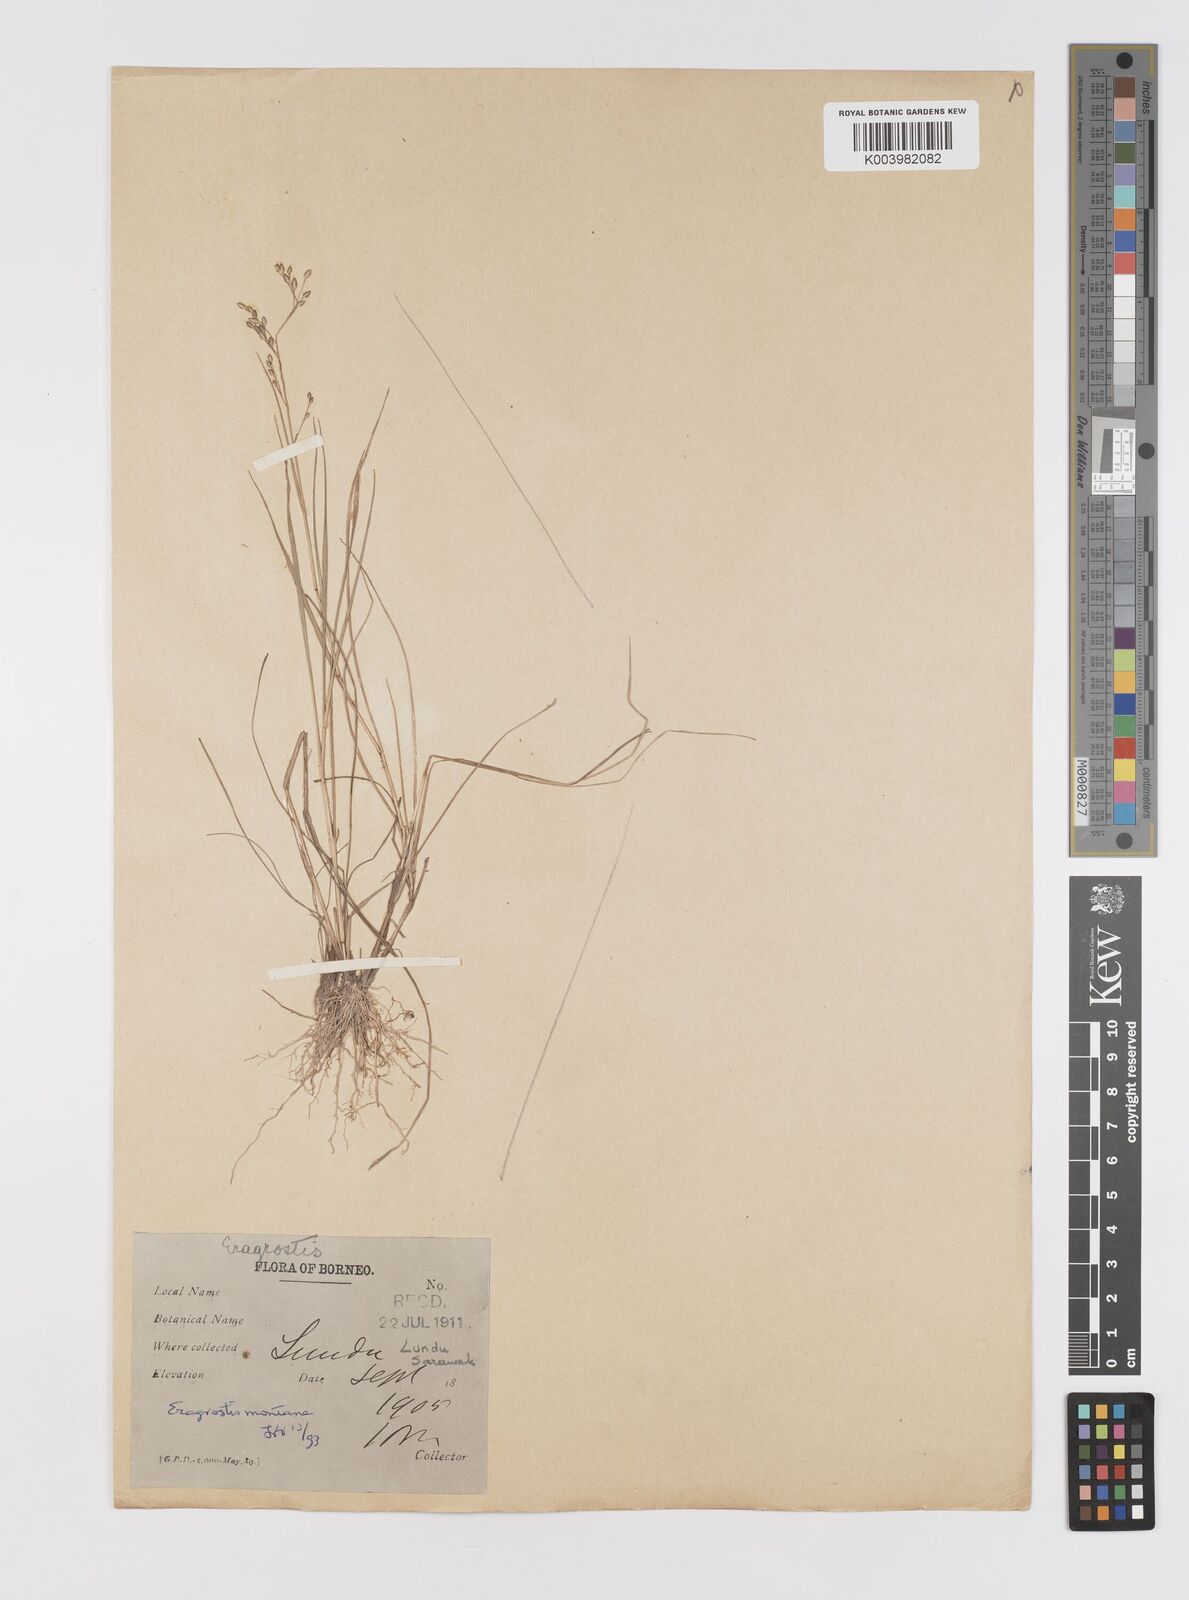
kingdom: Plantae
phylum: Tracheophyta
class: Liliopsida
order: Poales
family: Poaceae
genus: Eragrostis
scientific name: Eragrostis montana
